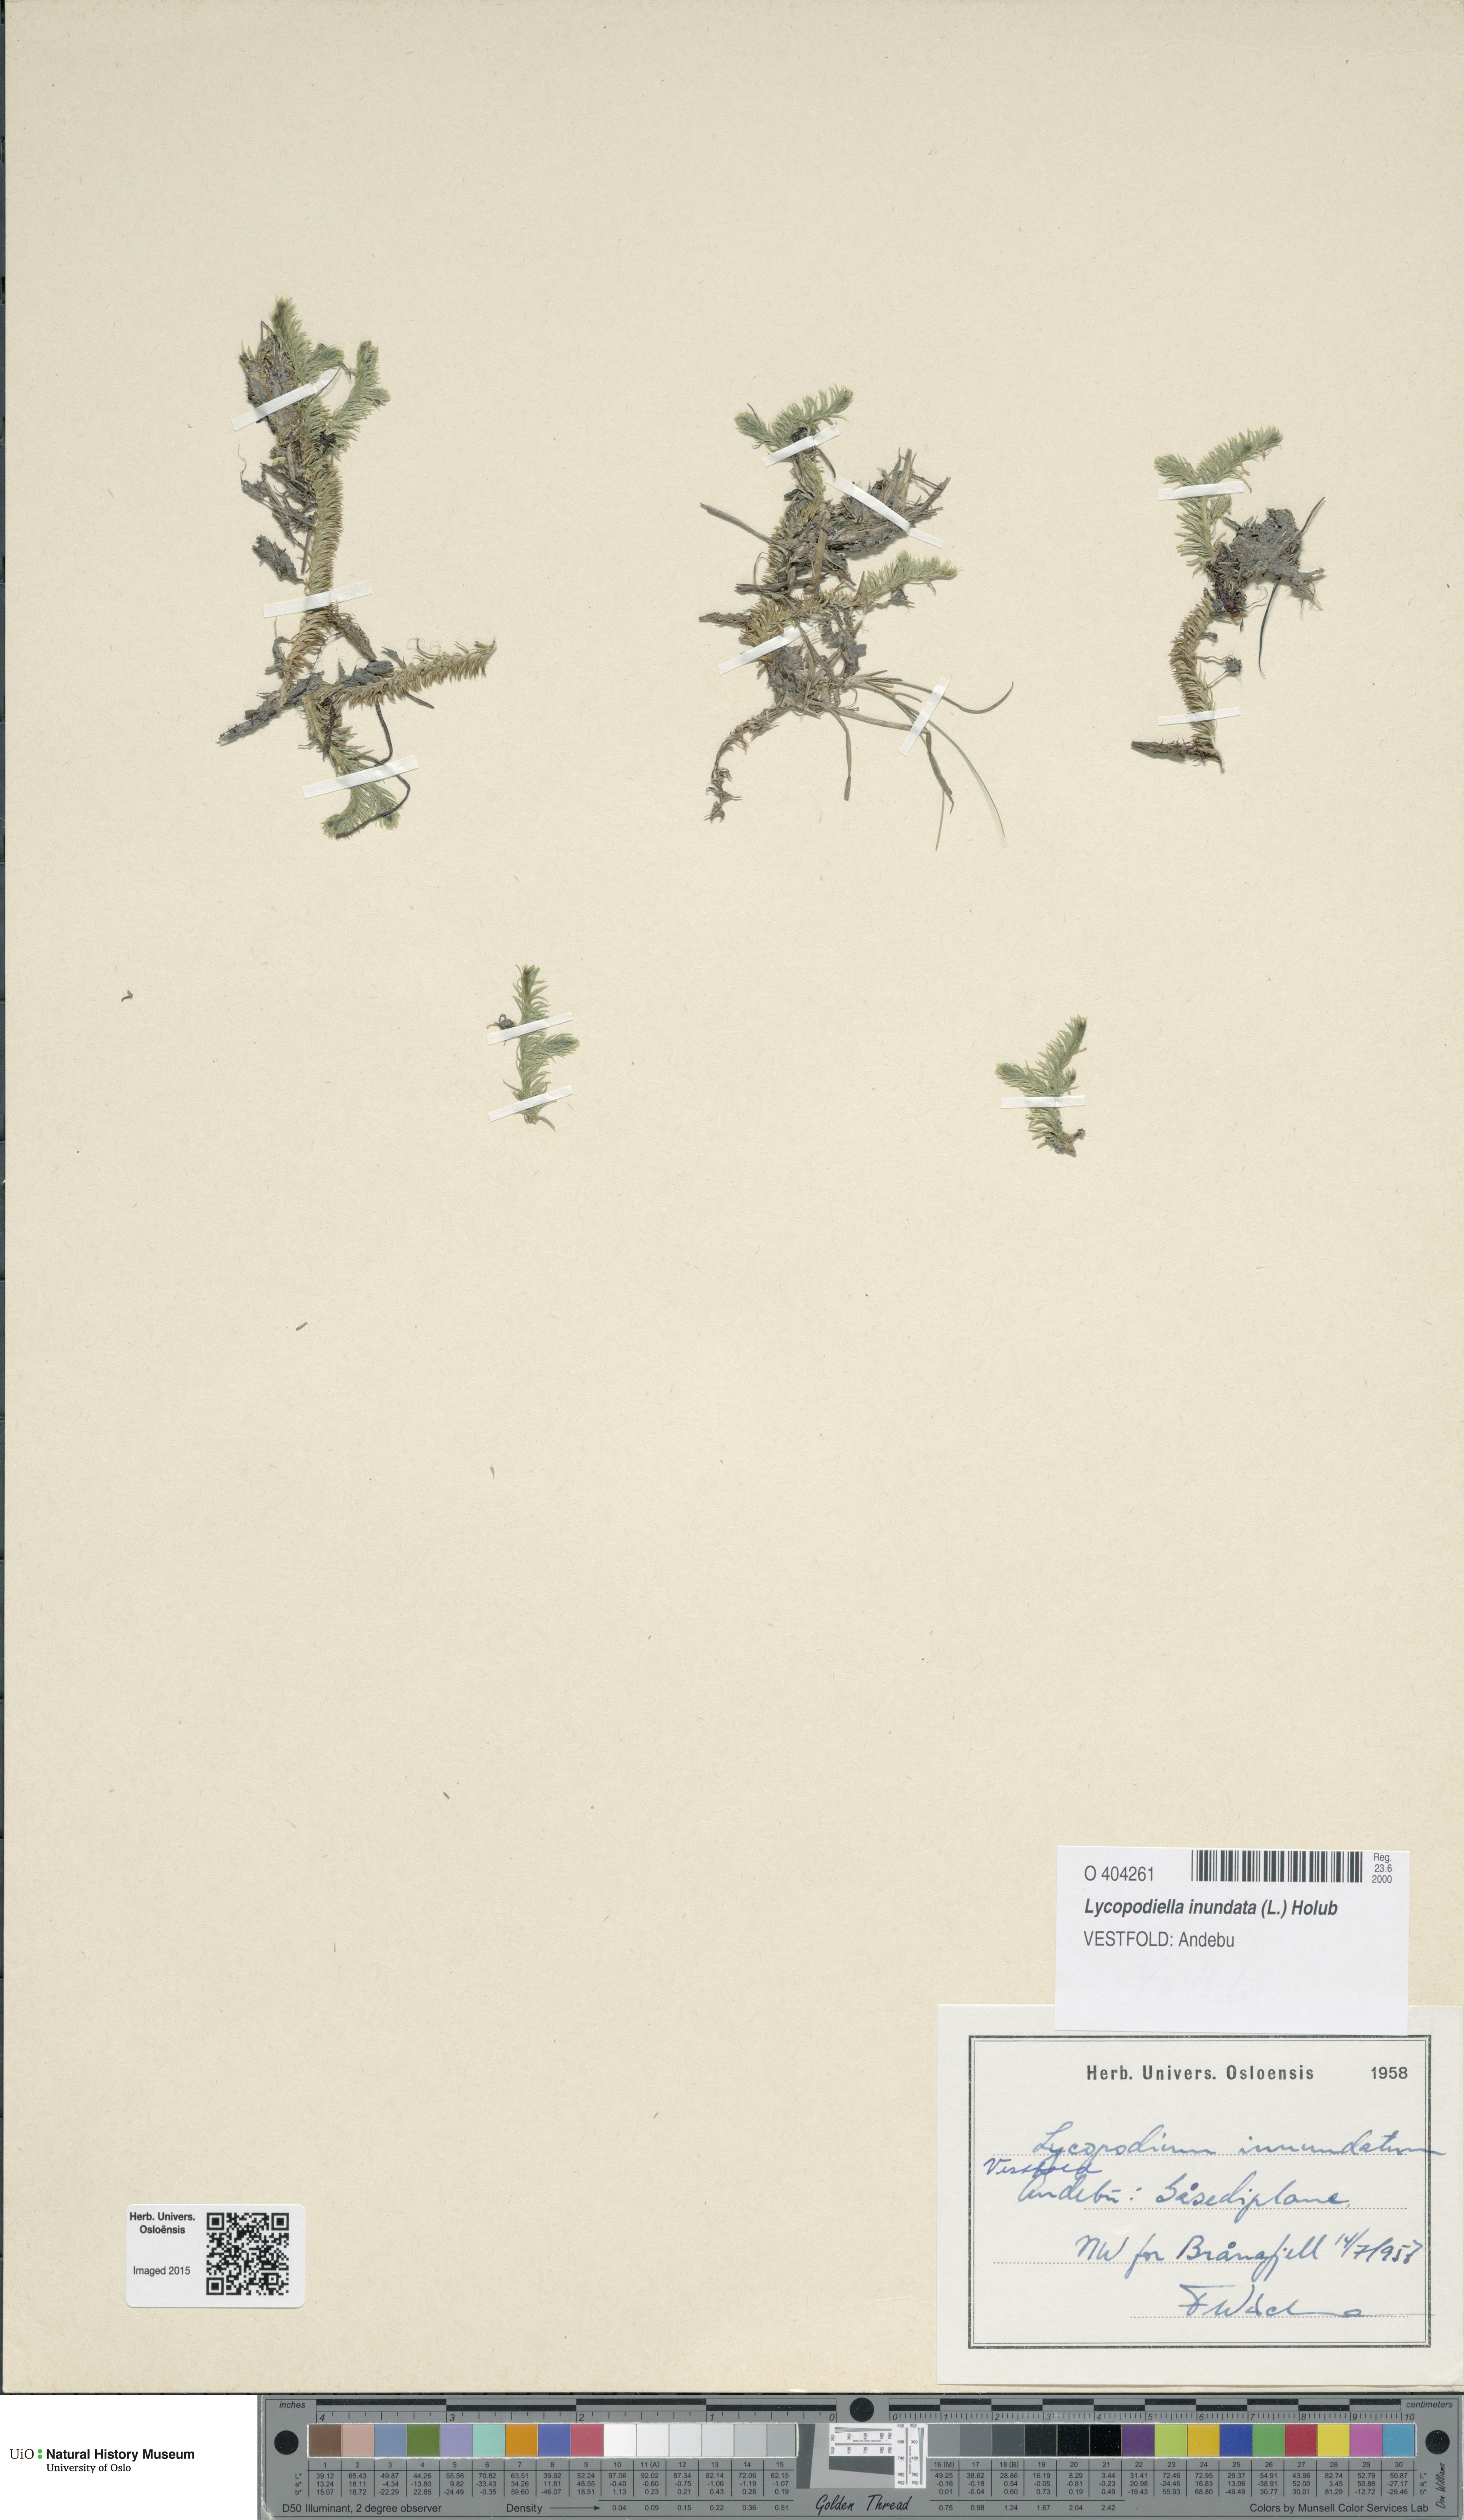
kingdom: Plantae
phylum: Tracheophyta
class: Lycopodiopsida
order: Lycopodiales
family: Lycopodiaceae
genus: Lycopodiella
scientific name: Lycopodiella inundata
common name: Marsh clubmoss
